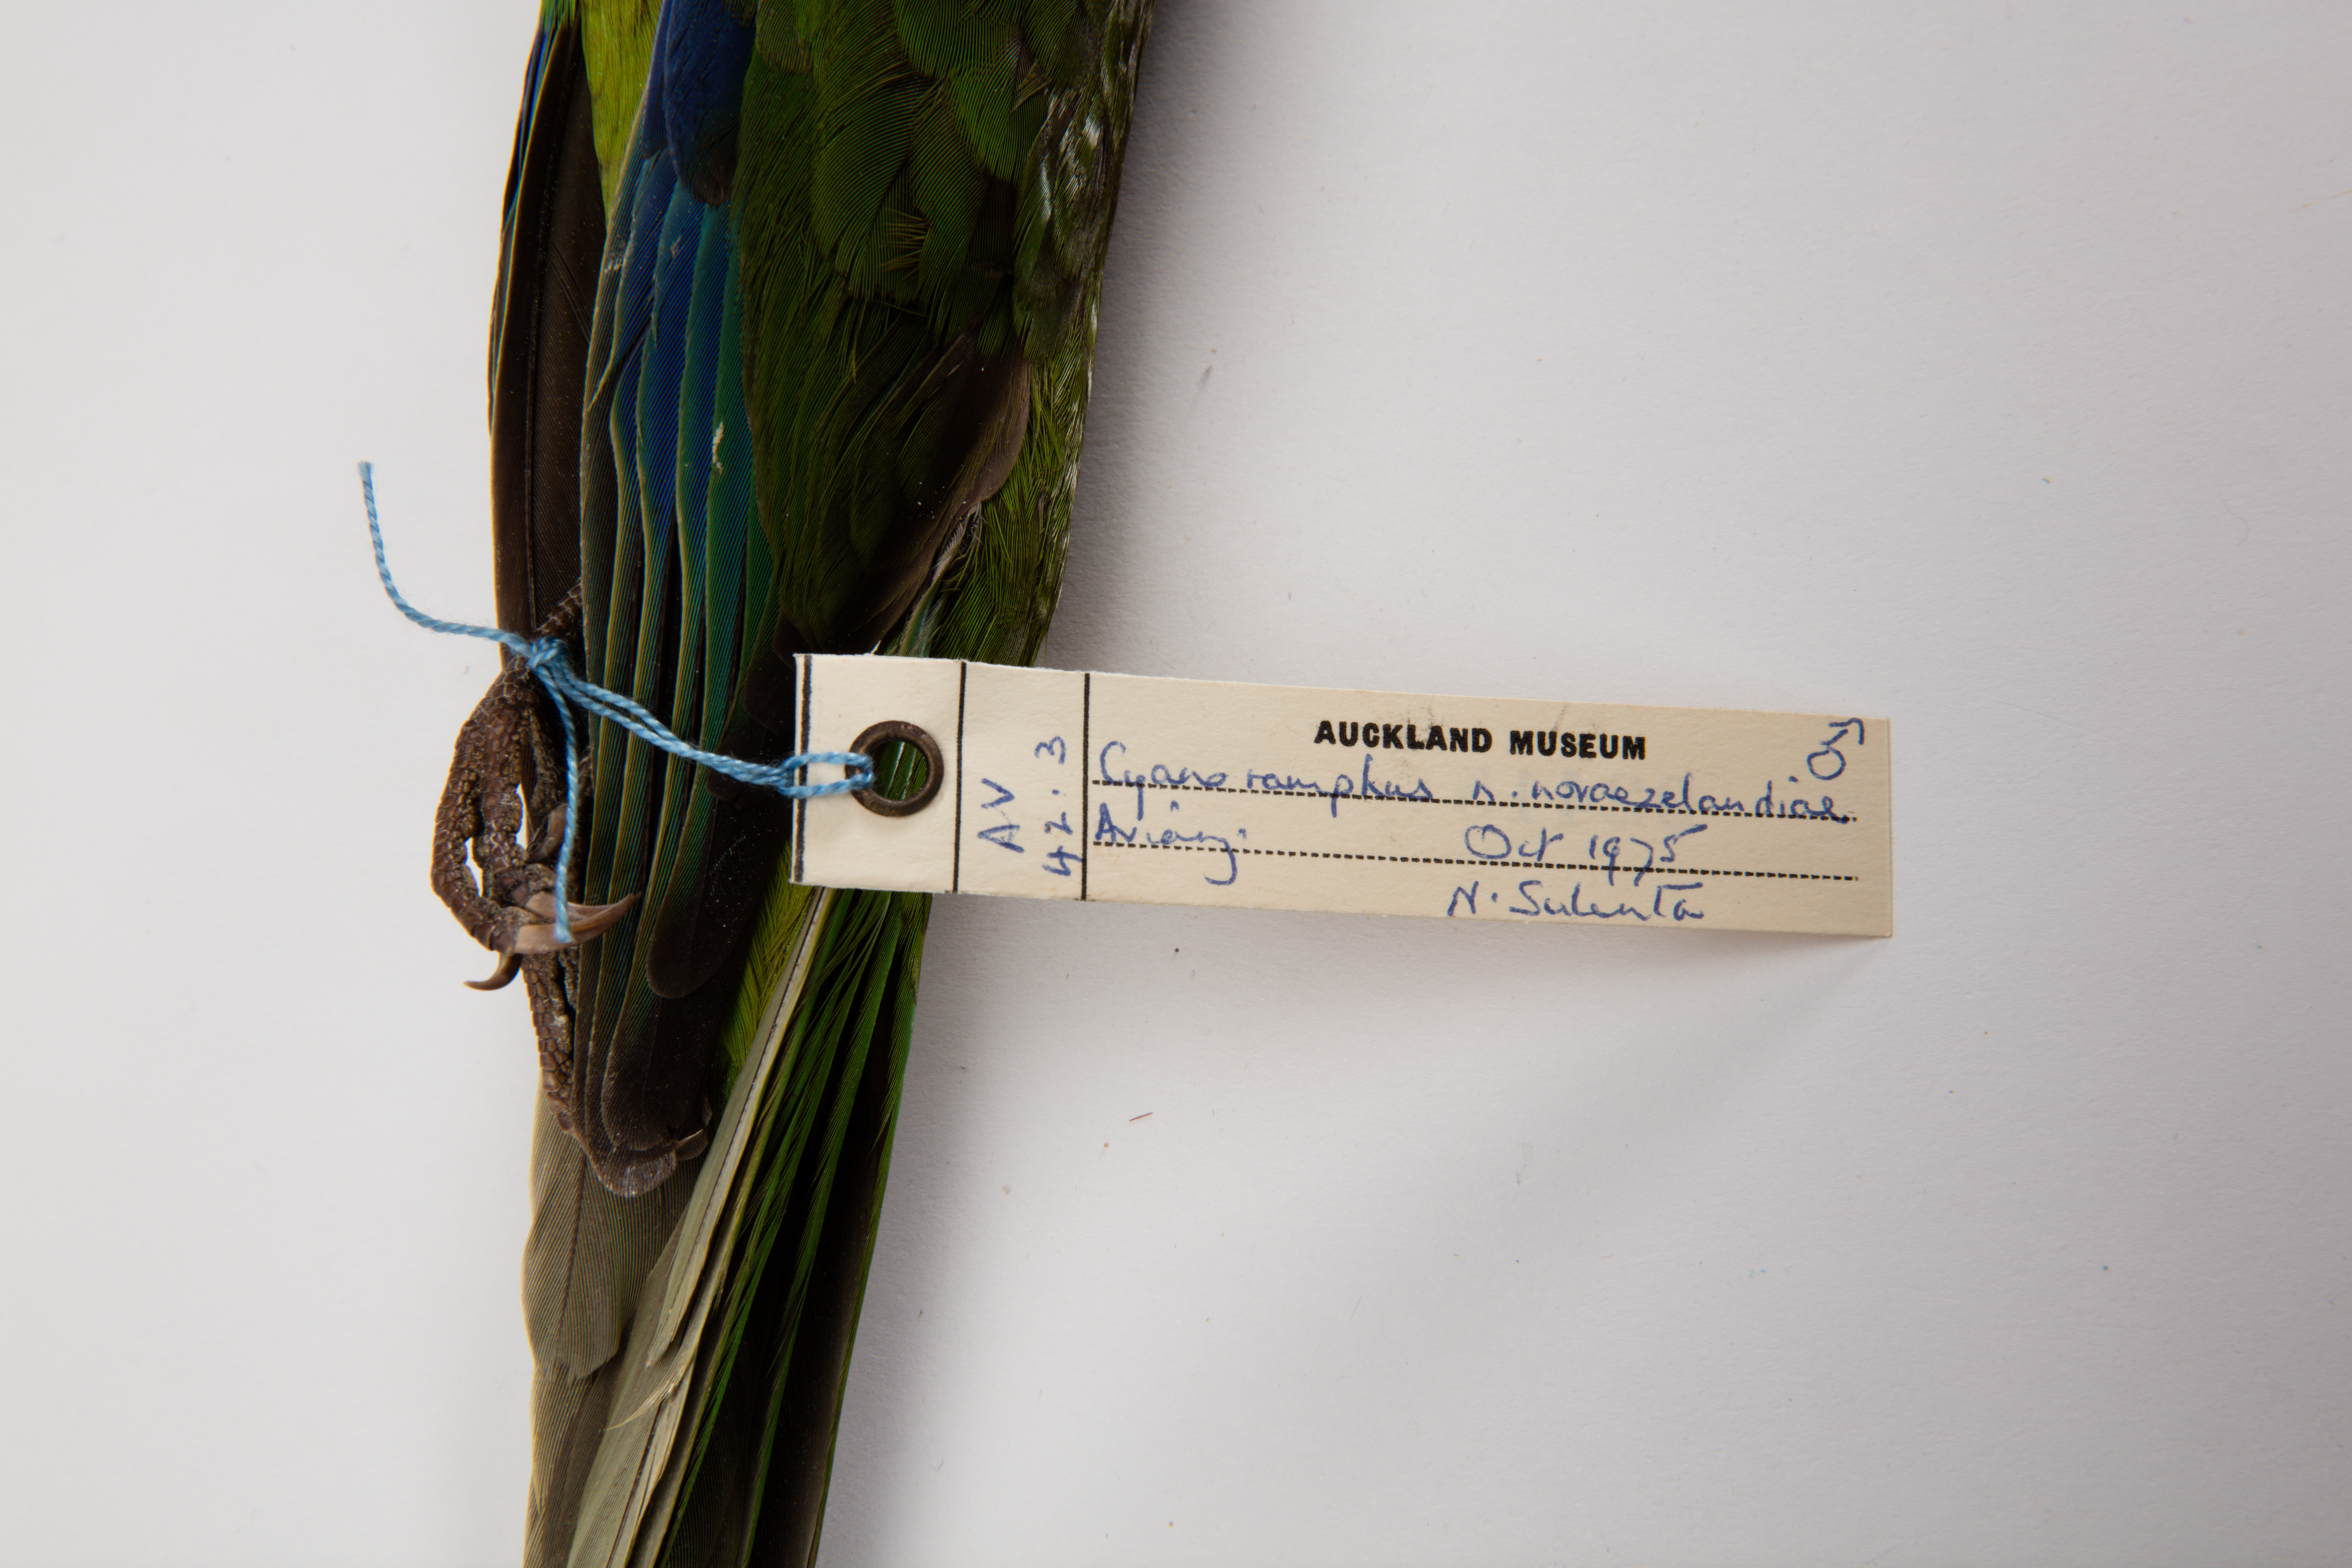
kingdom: Animalia
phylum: Chordata
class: Aves
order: Psittaciformes
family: Psittacidae
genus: Cyanoramphus
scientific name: Cyanoramphus novaezelandiae
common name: Red-fronted parakeet
